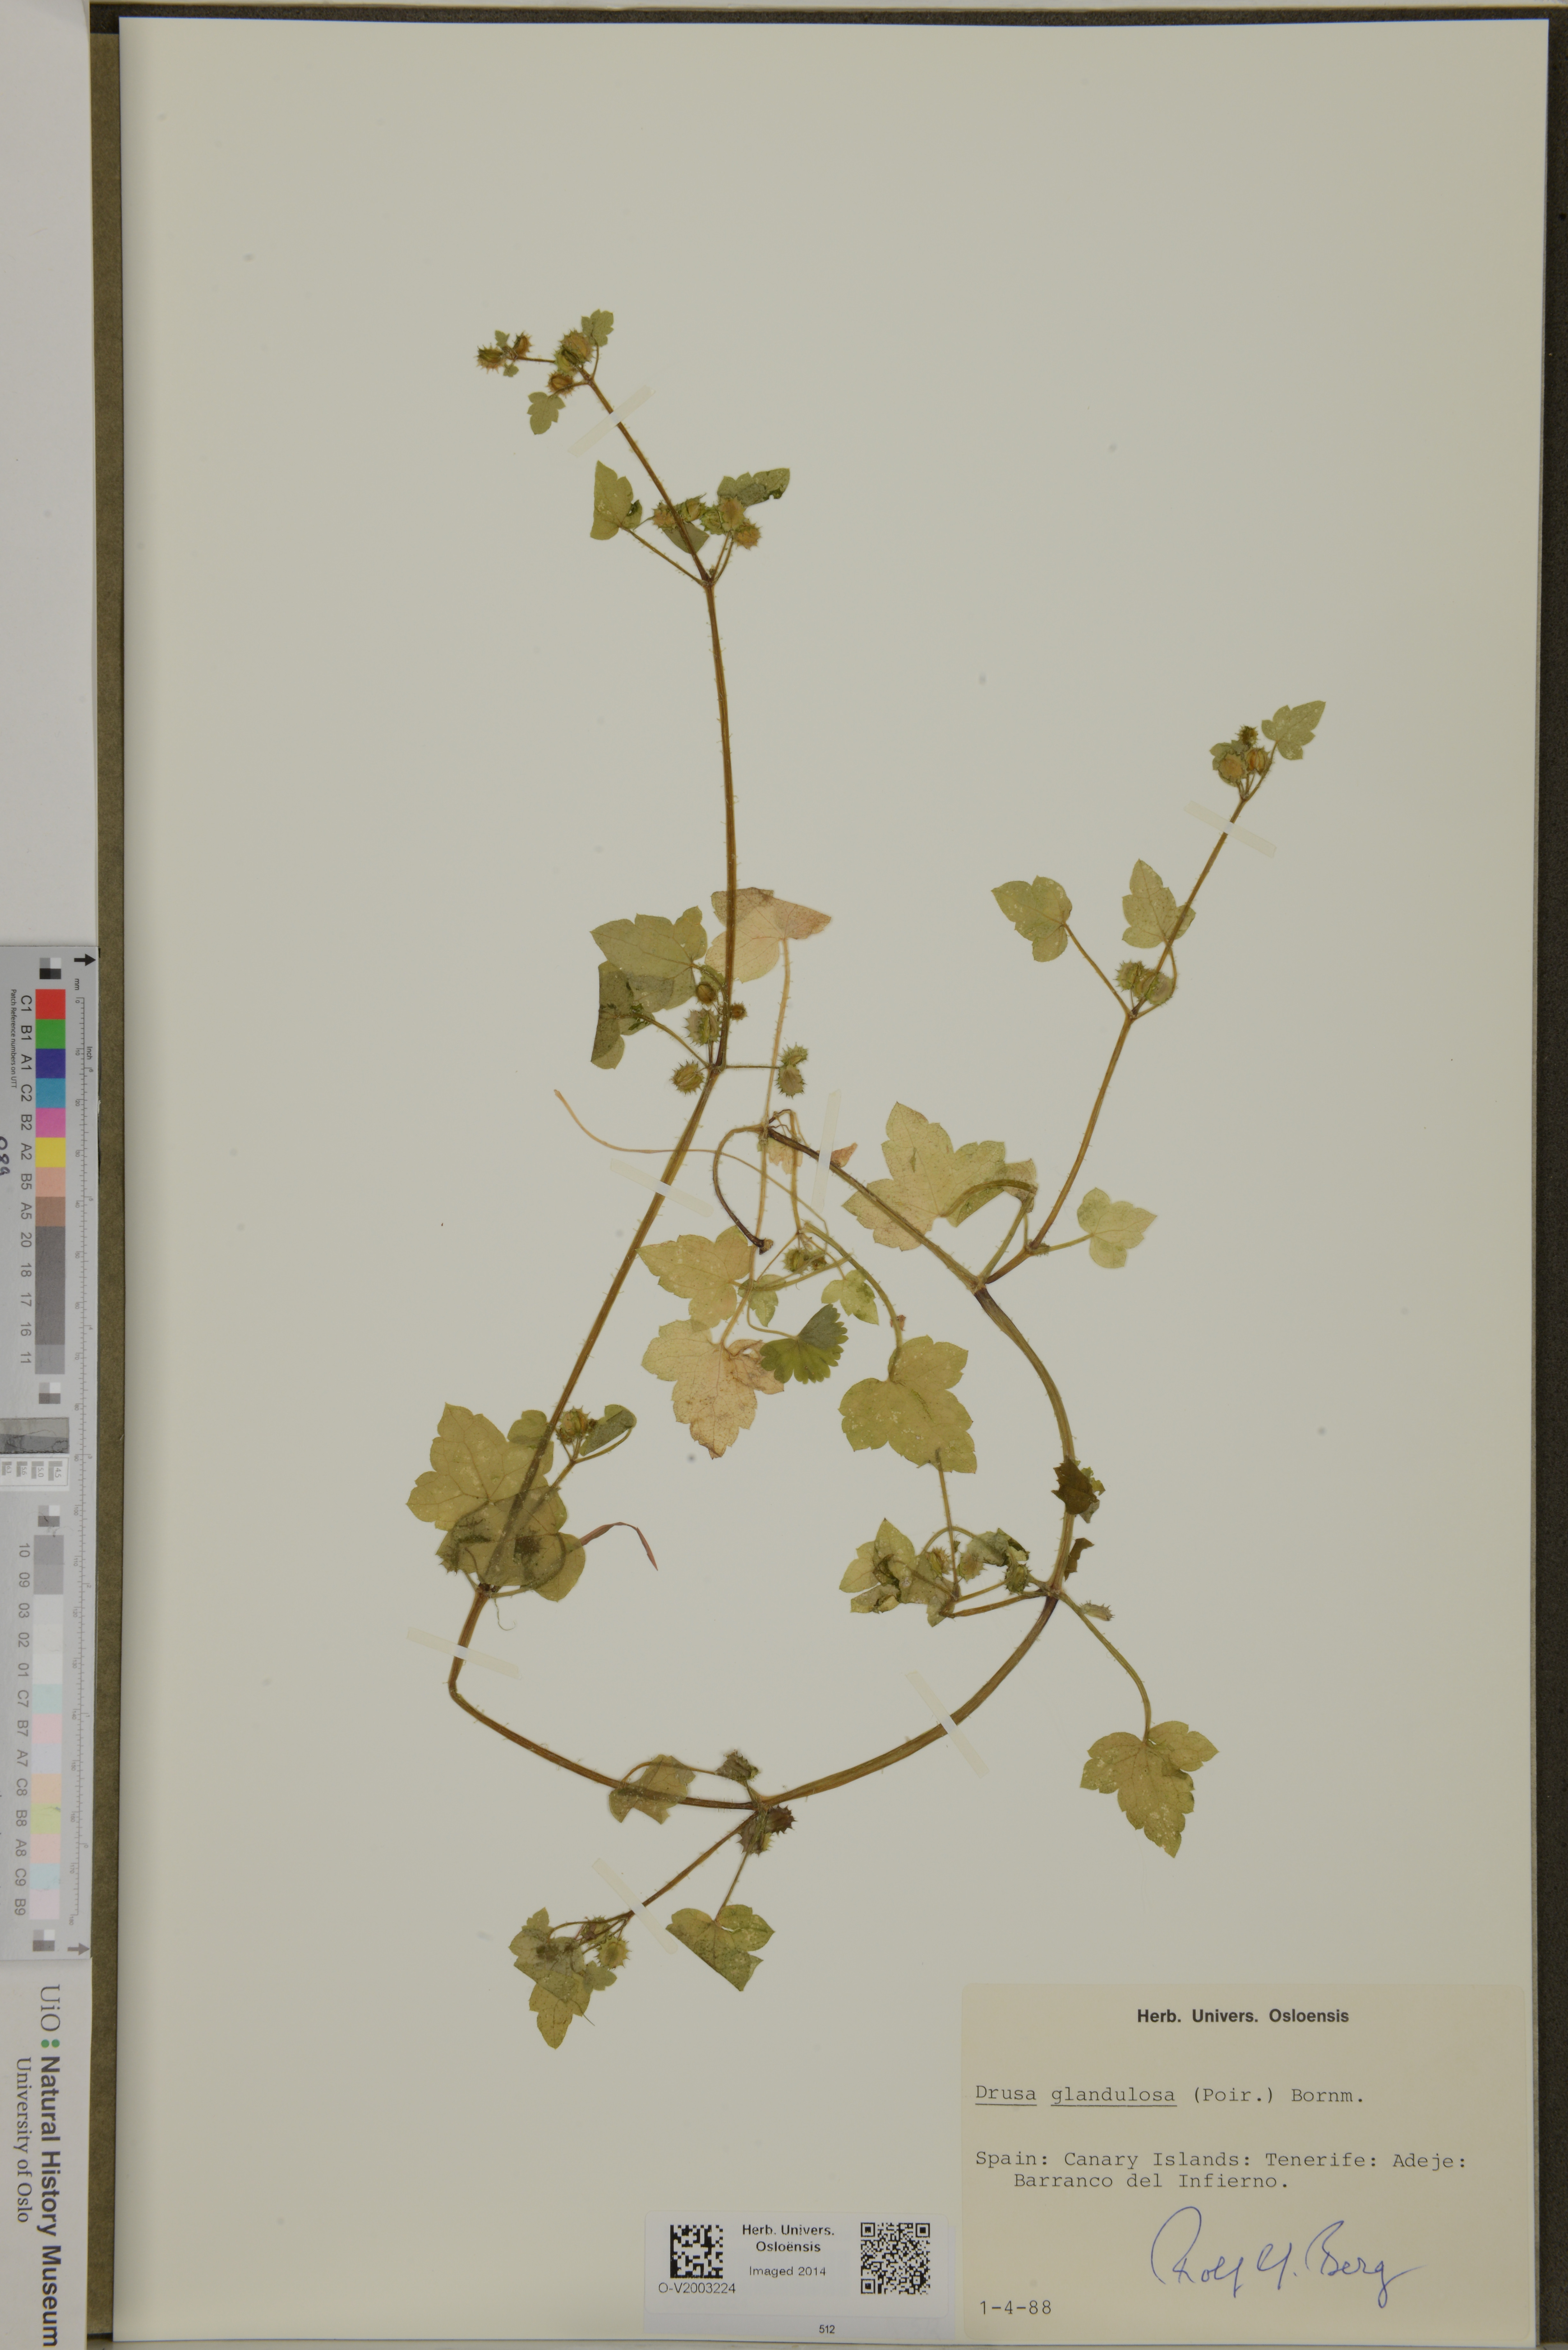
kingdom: Plantae
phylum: Tracheophyta
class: Magnoliopsida
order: Apiales
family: Apiaceae
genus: Drusa
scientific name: Drusa glandulosa
